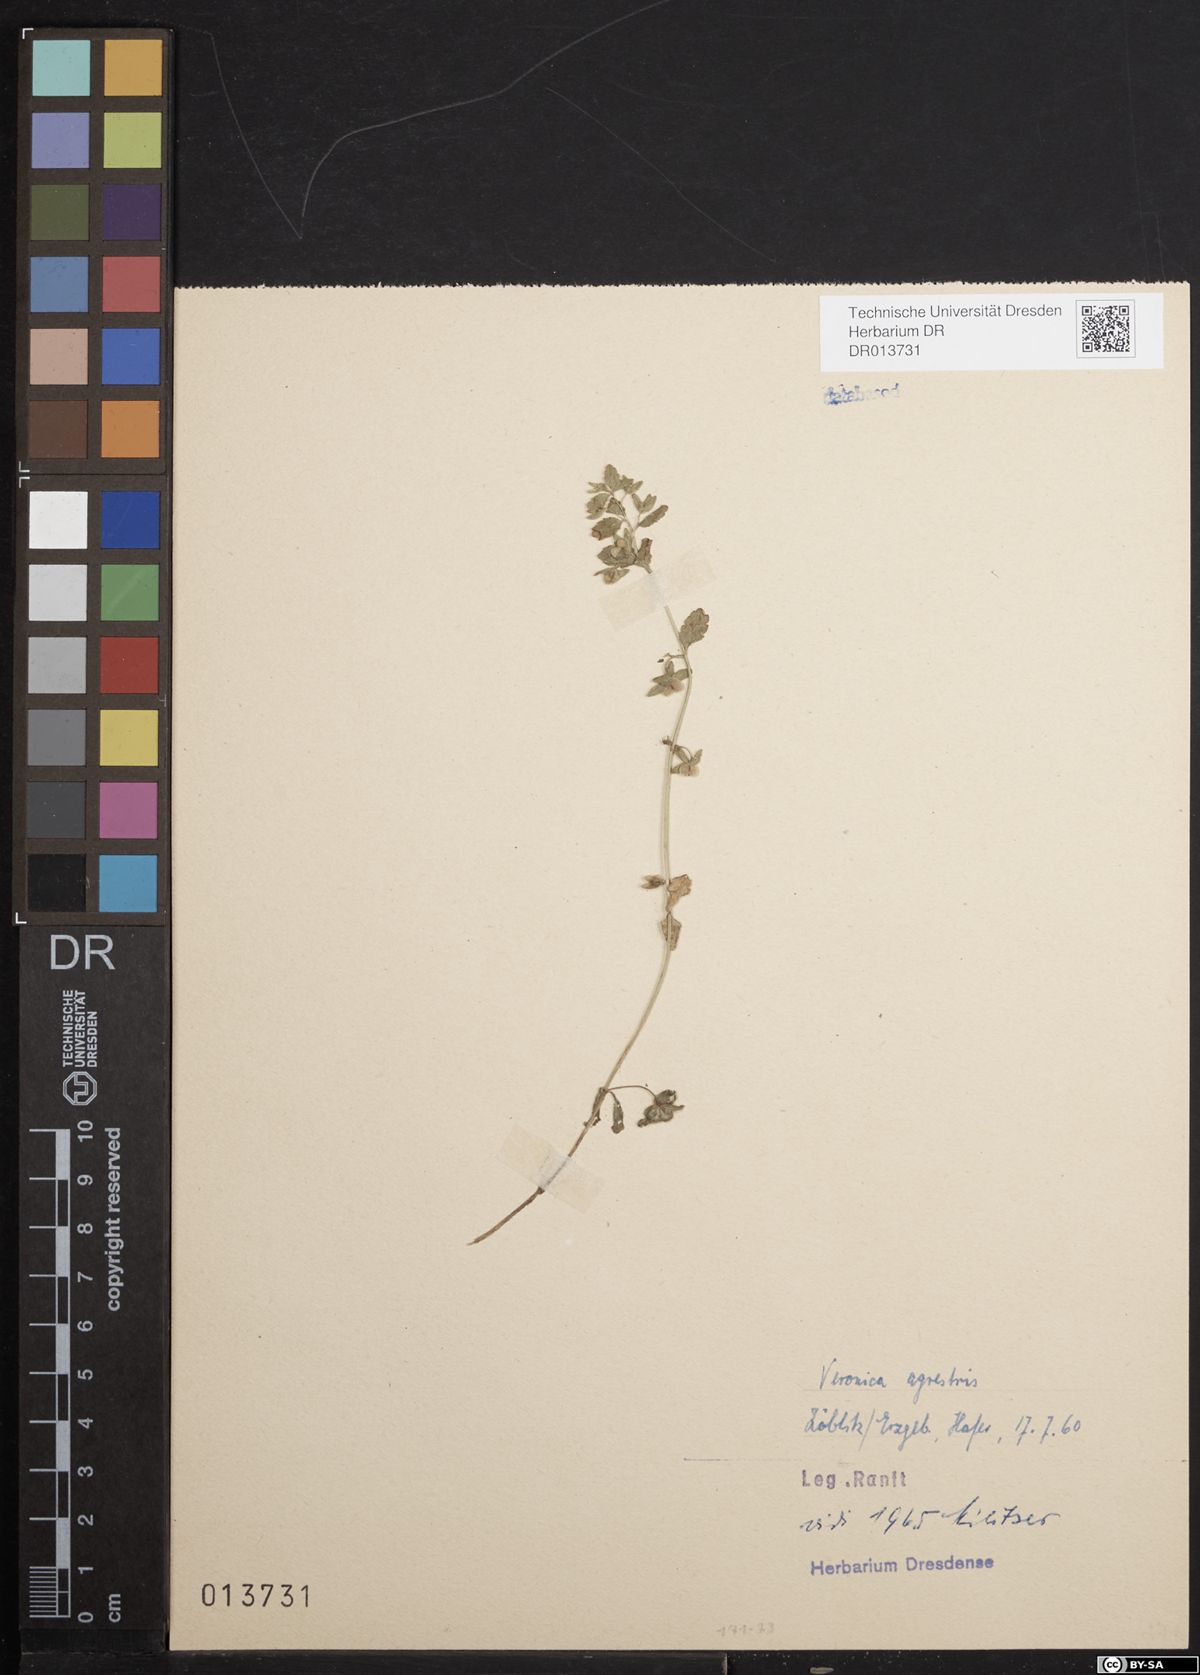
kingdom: Plantae
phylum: Tracheophyta
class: Magnoliopsida
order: Lamiales
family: Plantaginaceae
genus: Veronica
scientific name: Veronica agrestis
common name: Green field-speedwell
